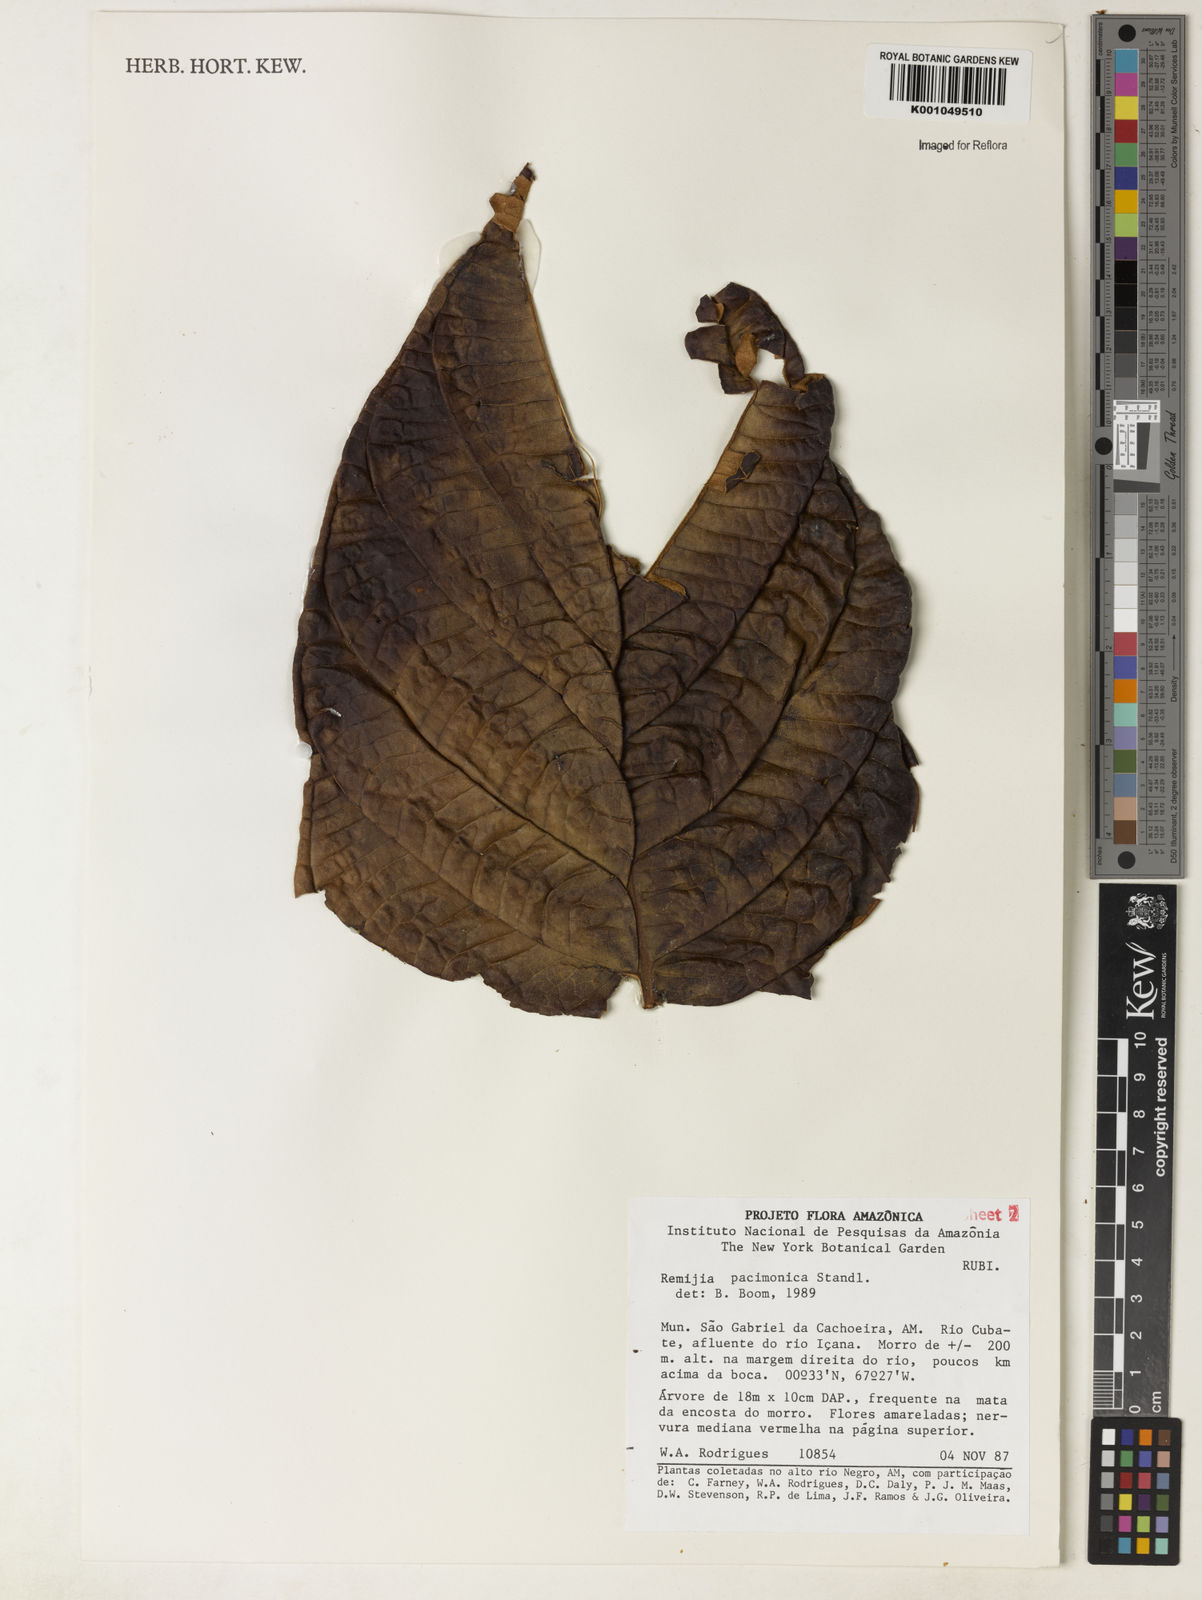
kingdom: Plantae
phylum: Tracheophyta
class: Magnoliopsida
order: Gentianales
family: Rubiaceae
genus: Remijia
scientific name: Remijia lacunosa
